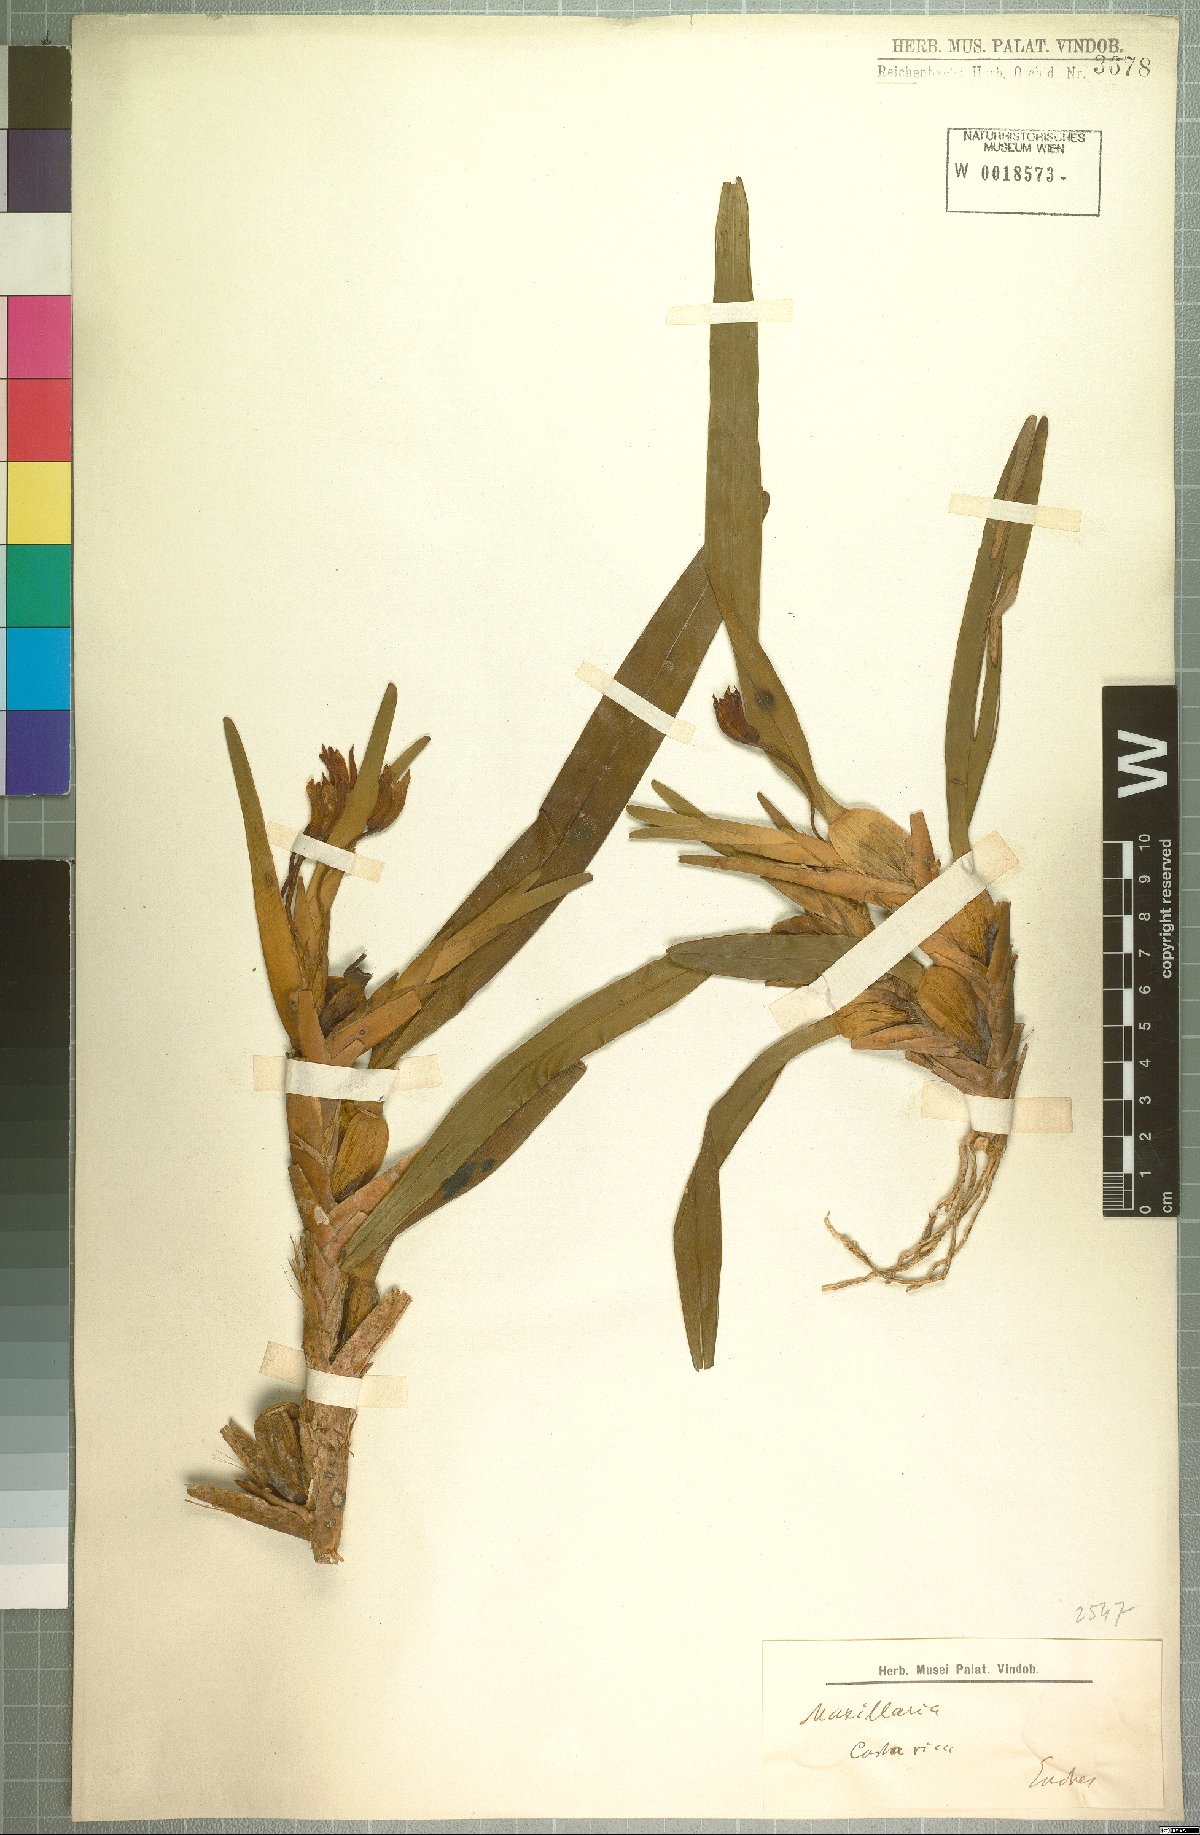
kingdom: Plantae
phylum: Tracheophyta
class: Liliopsida
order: Asparagales
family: Orchidaceae
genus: Maxillaria
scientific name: Maxillaria
